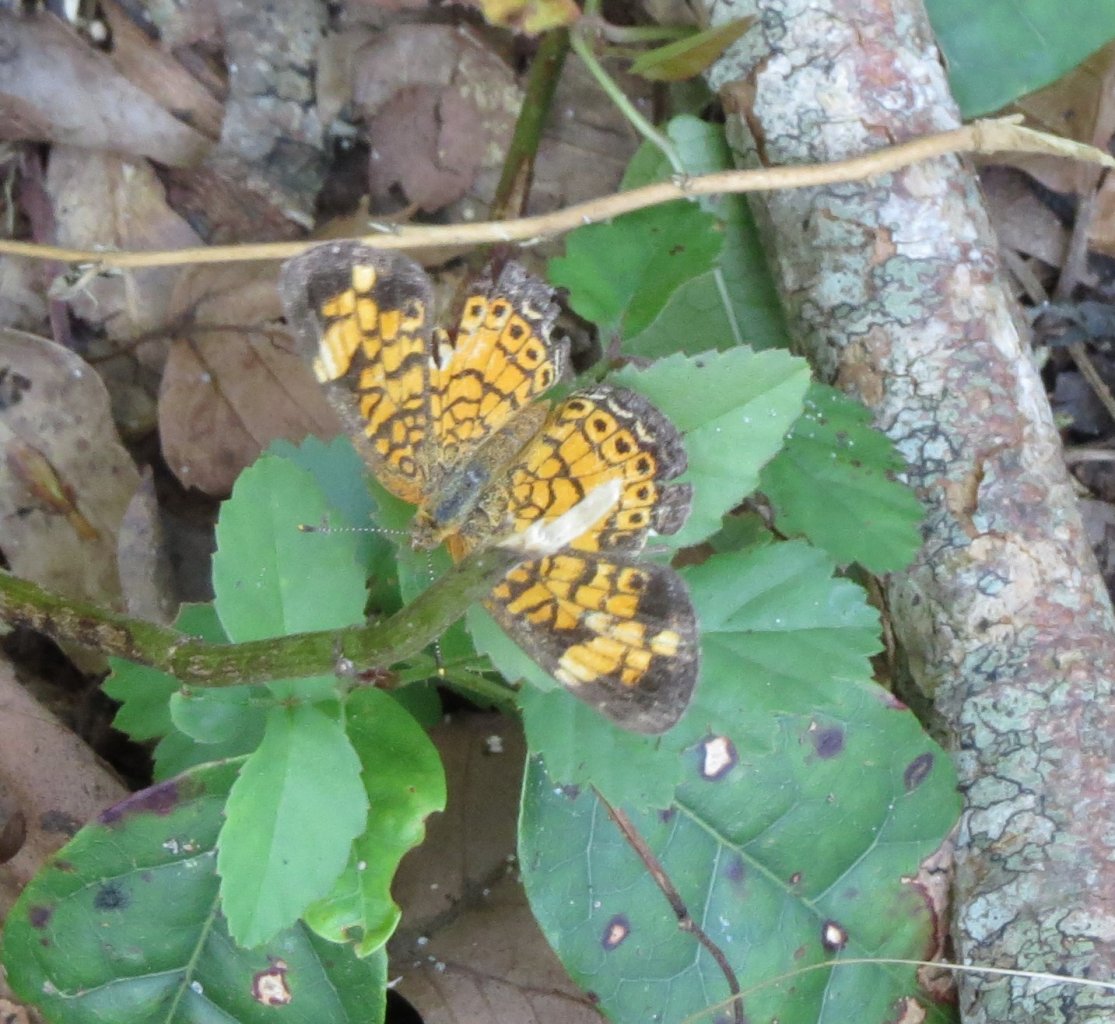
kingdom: Animalia
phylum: Arthropoda
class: Insecta
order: Lepidoptera
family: Nymphalidae
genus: Phyciodes
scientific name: Phyciodes tharos
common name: Pearl Crescent
